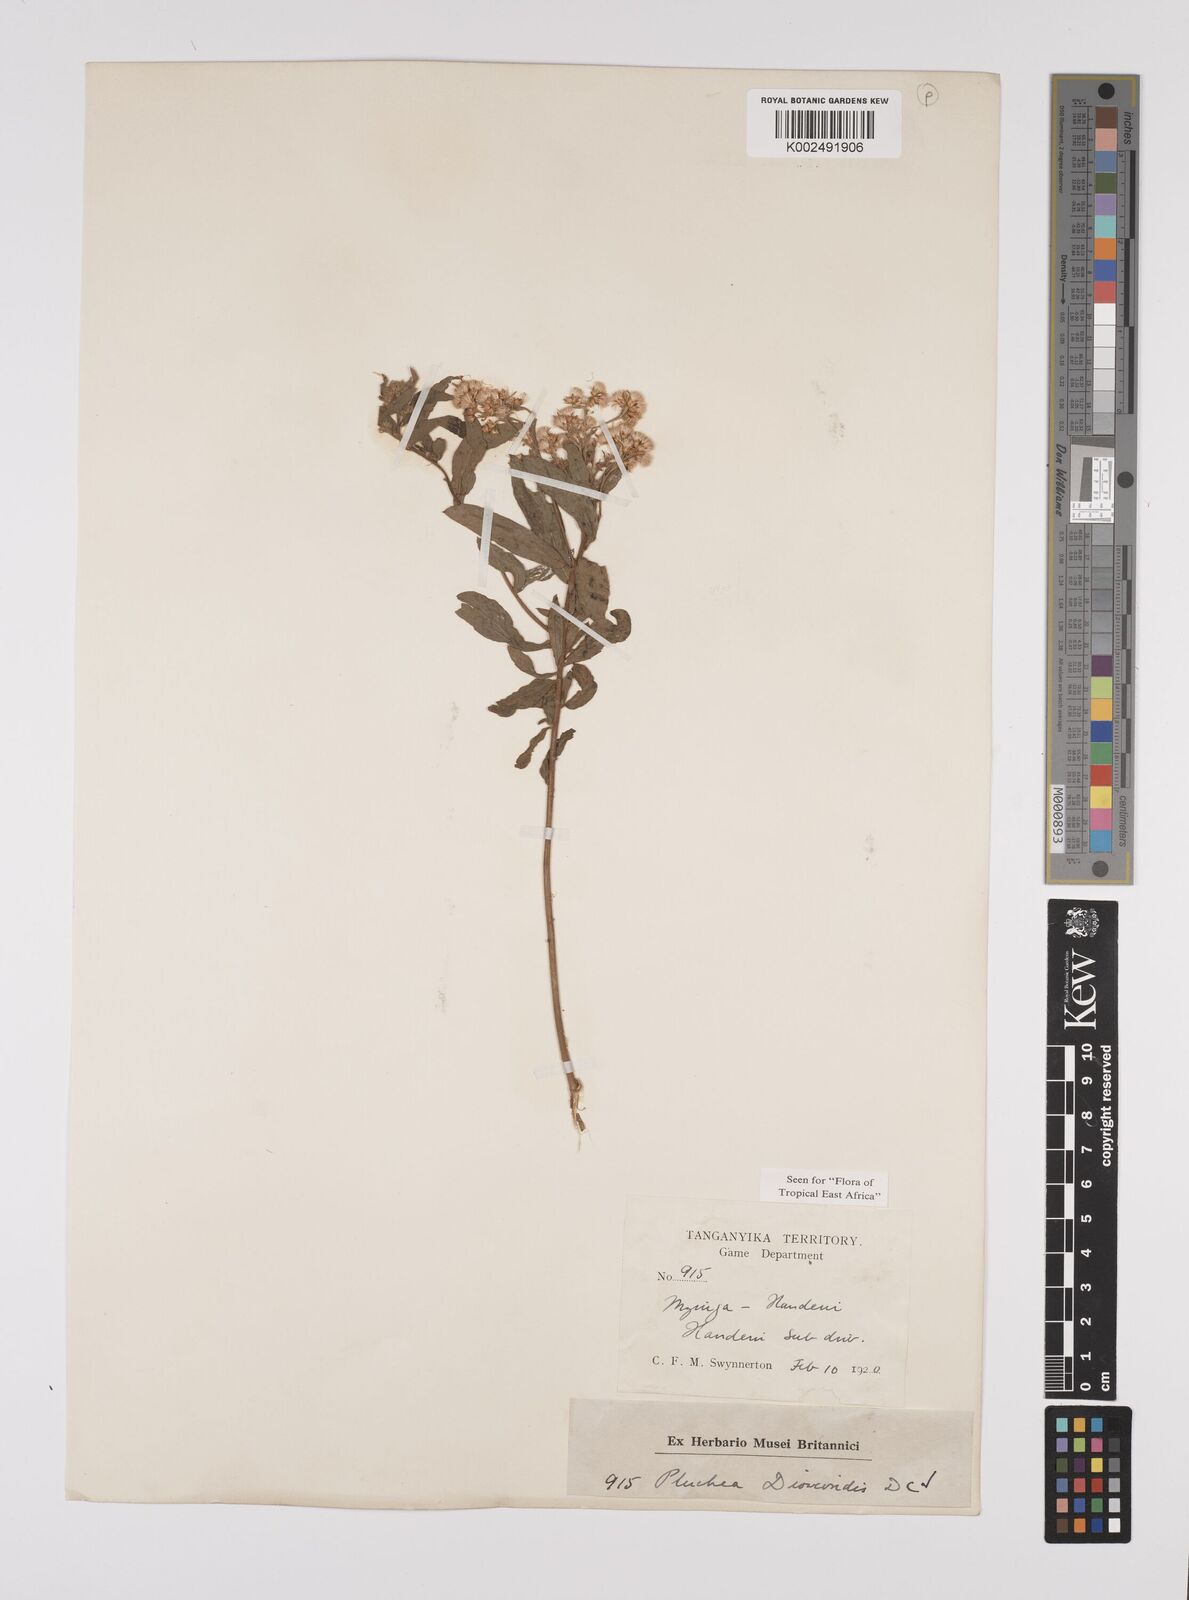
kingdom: Plantae
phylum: Tracheophyta
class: Magnoliopsida
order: Asterales
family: Asteraceae
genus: Pluchea
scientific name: Pluchea dioscoridis
